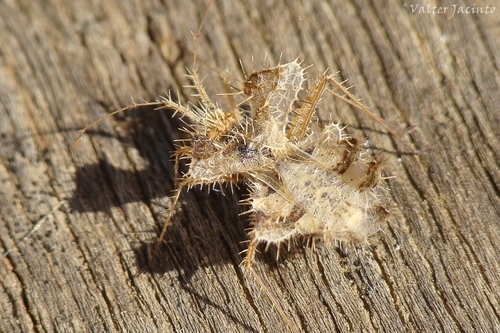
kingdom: Animalia
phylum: Arthropoda
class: Insecta
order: Hemiptera
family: Coreidae
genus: Phyllomorpha
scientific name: Phyllomorpha laciniata
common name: Golden egg bug
